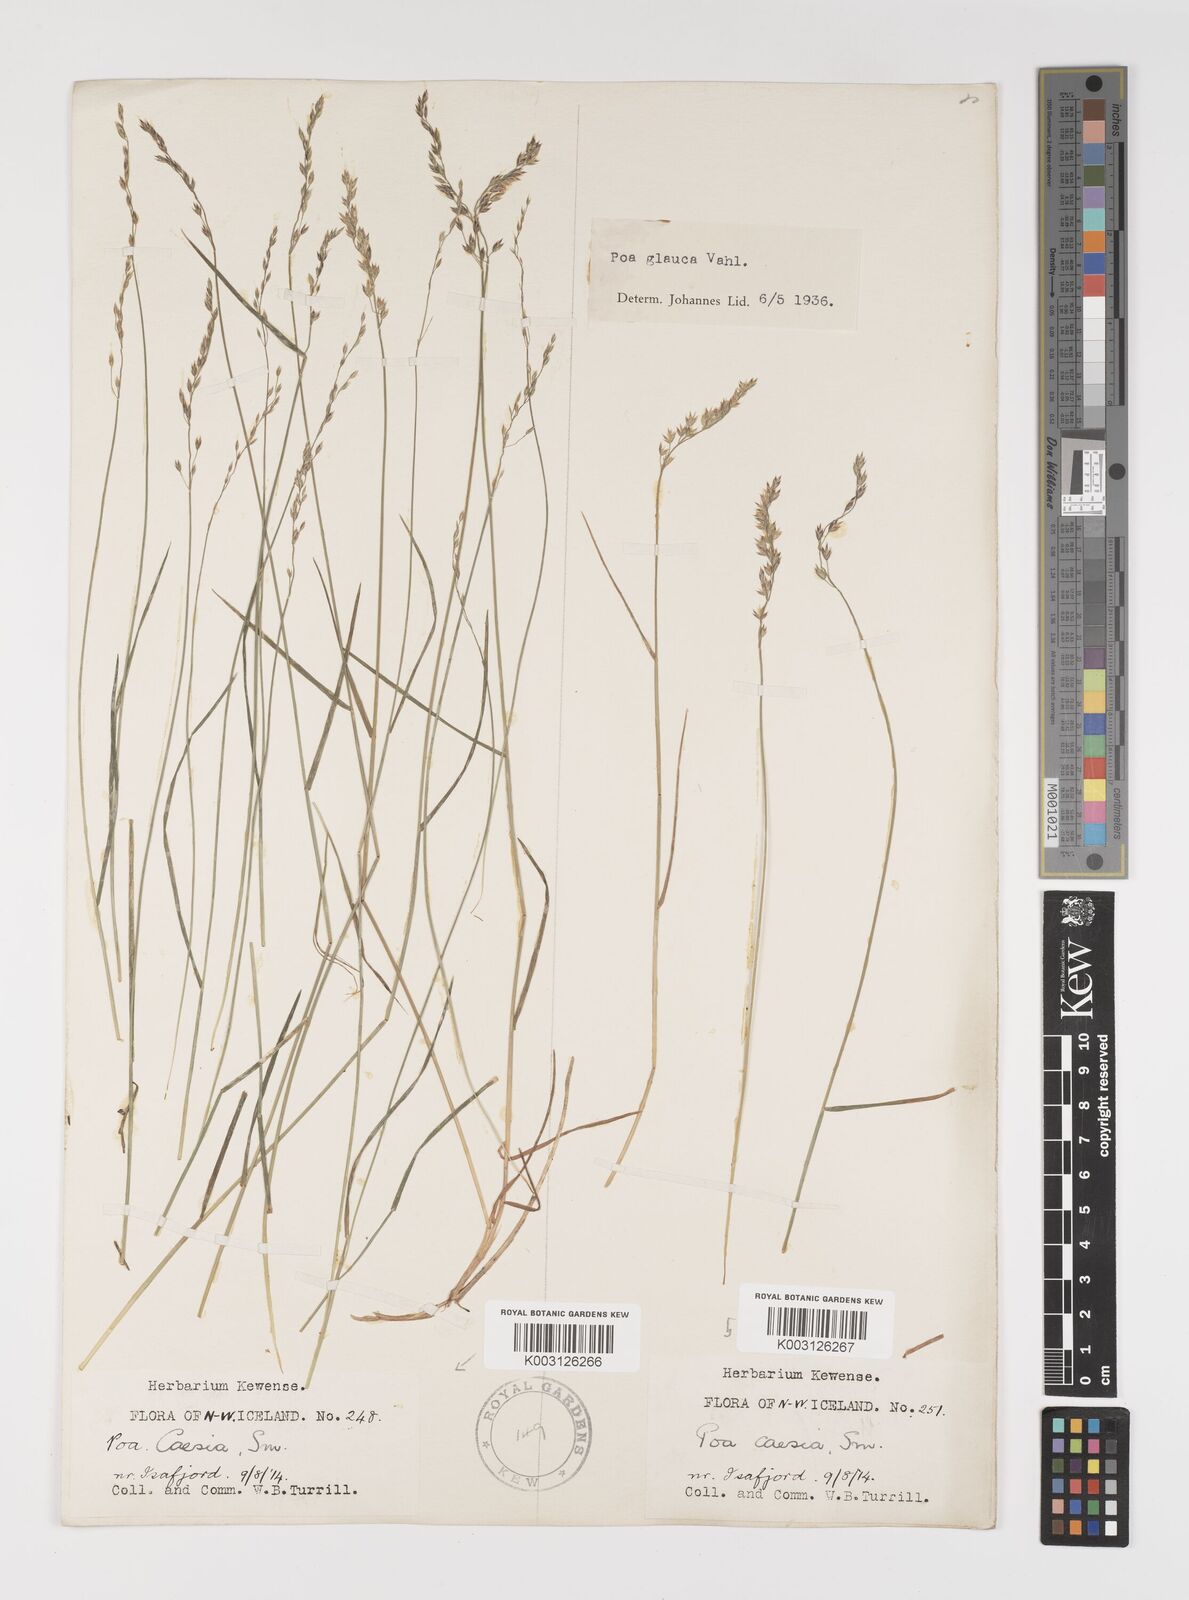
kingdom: Plantae
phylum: Tracheophyta
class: Liliopsida
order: Poales
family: Poaceae
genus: Poa
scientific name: Poa glauca
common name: Glaucous bluegrass
